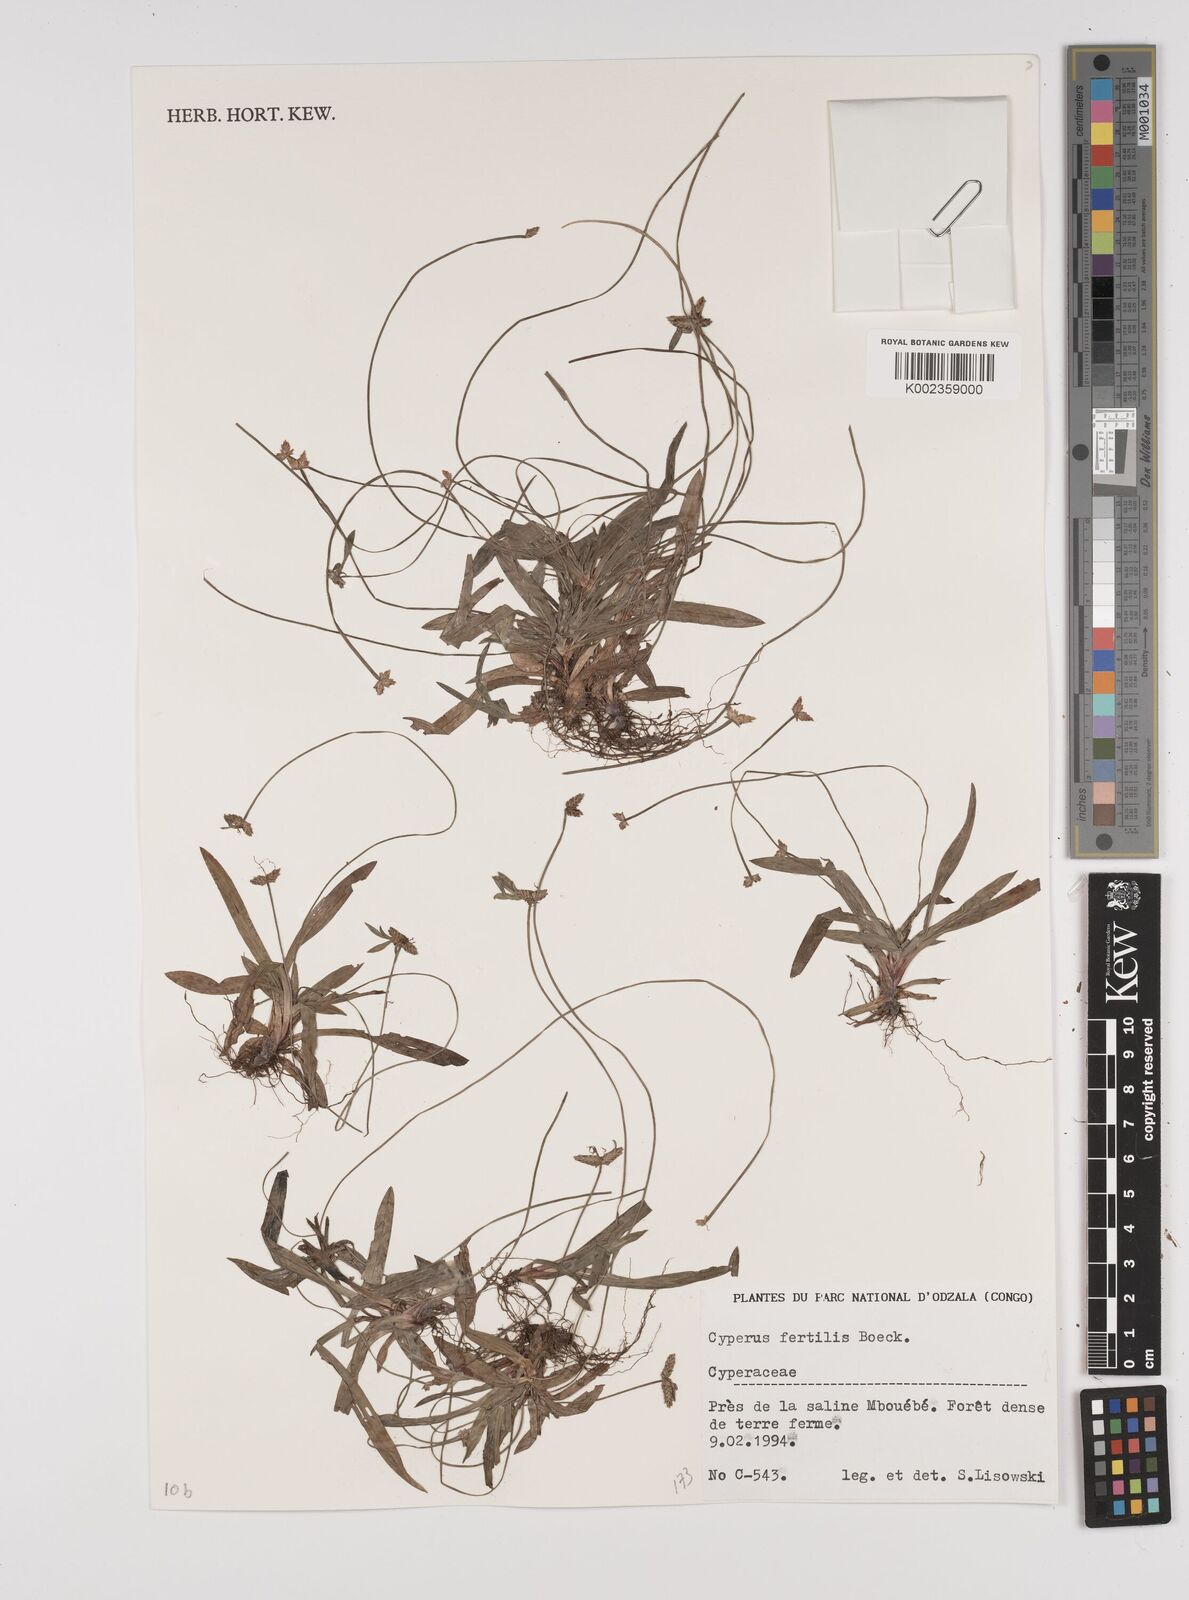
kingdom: Plantae
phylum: Tracheophyta
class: Liliopsida
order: Poales
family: Cyperaceae
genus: Cyperus
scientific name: Cyperus fertilis
